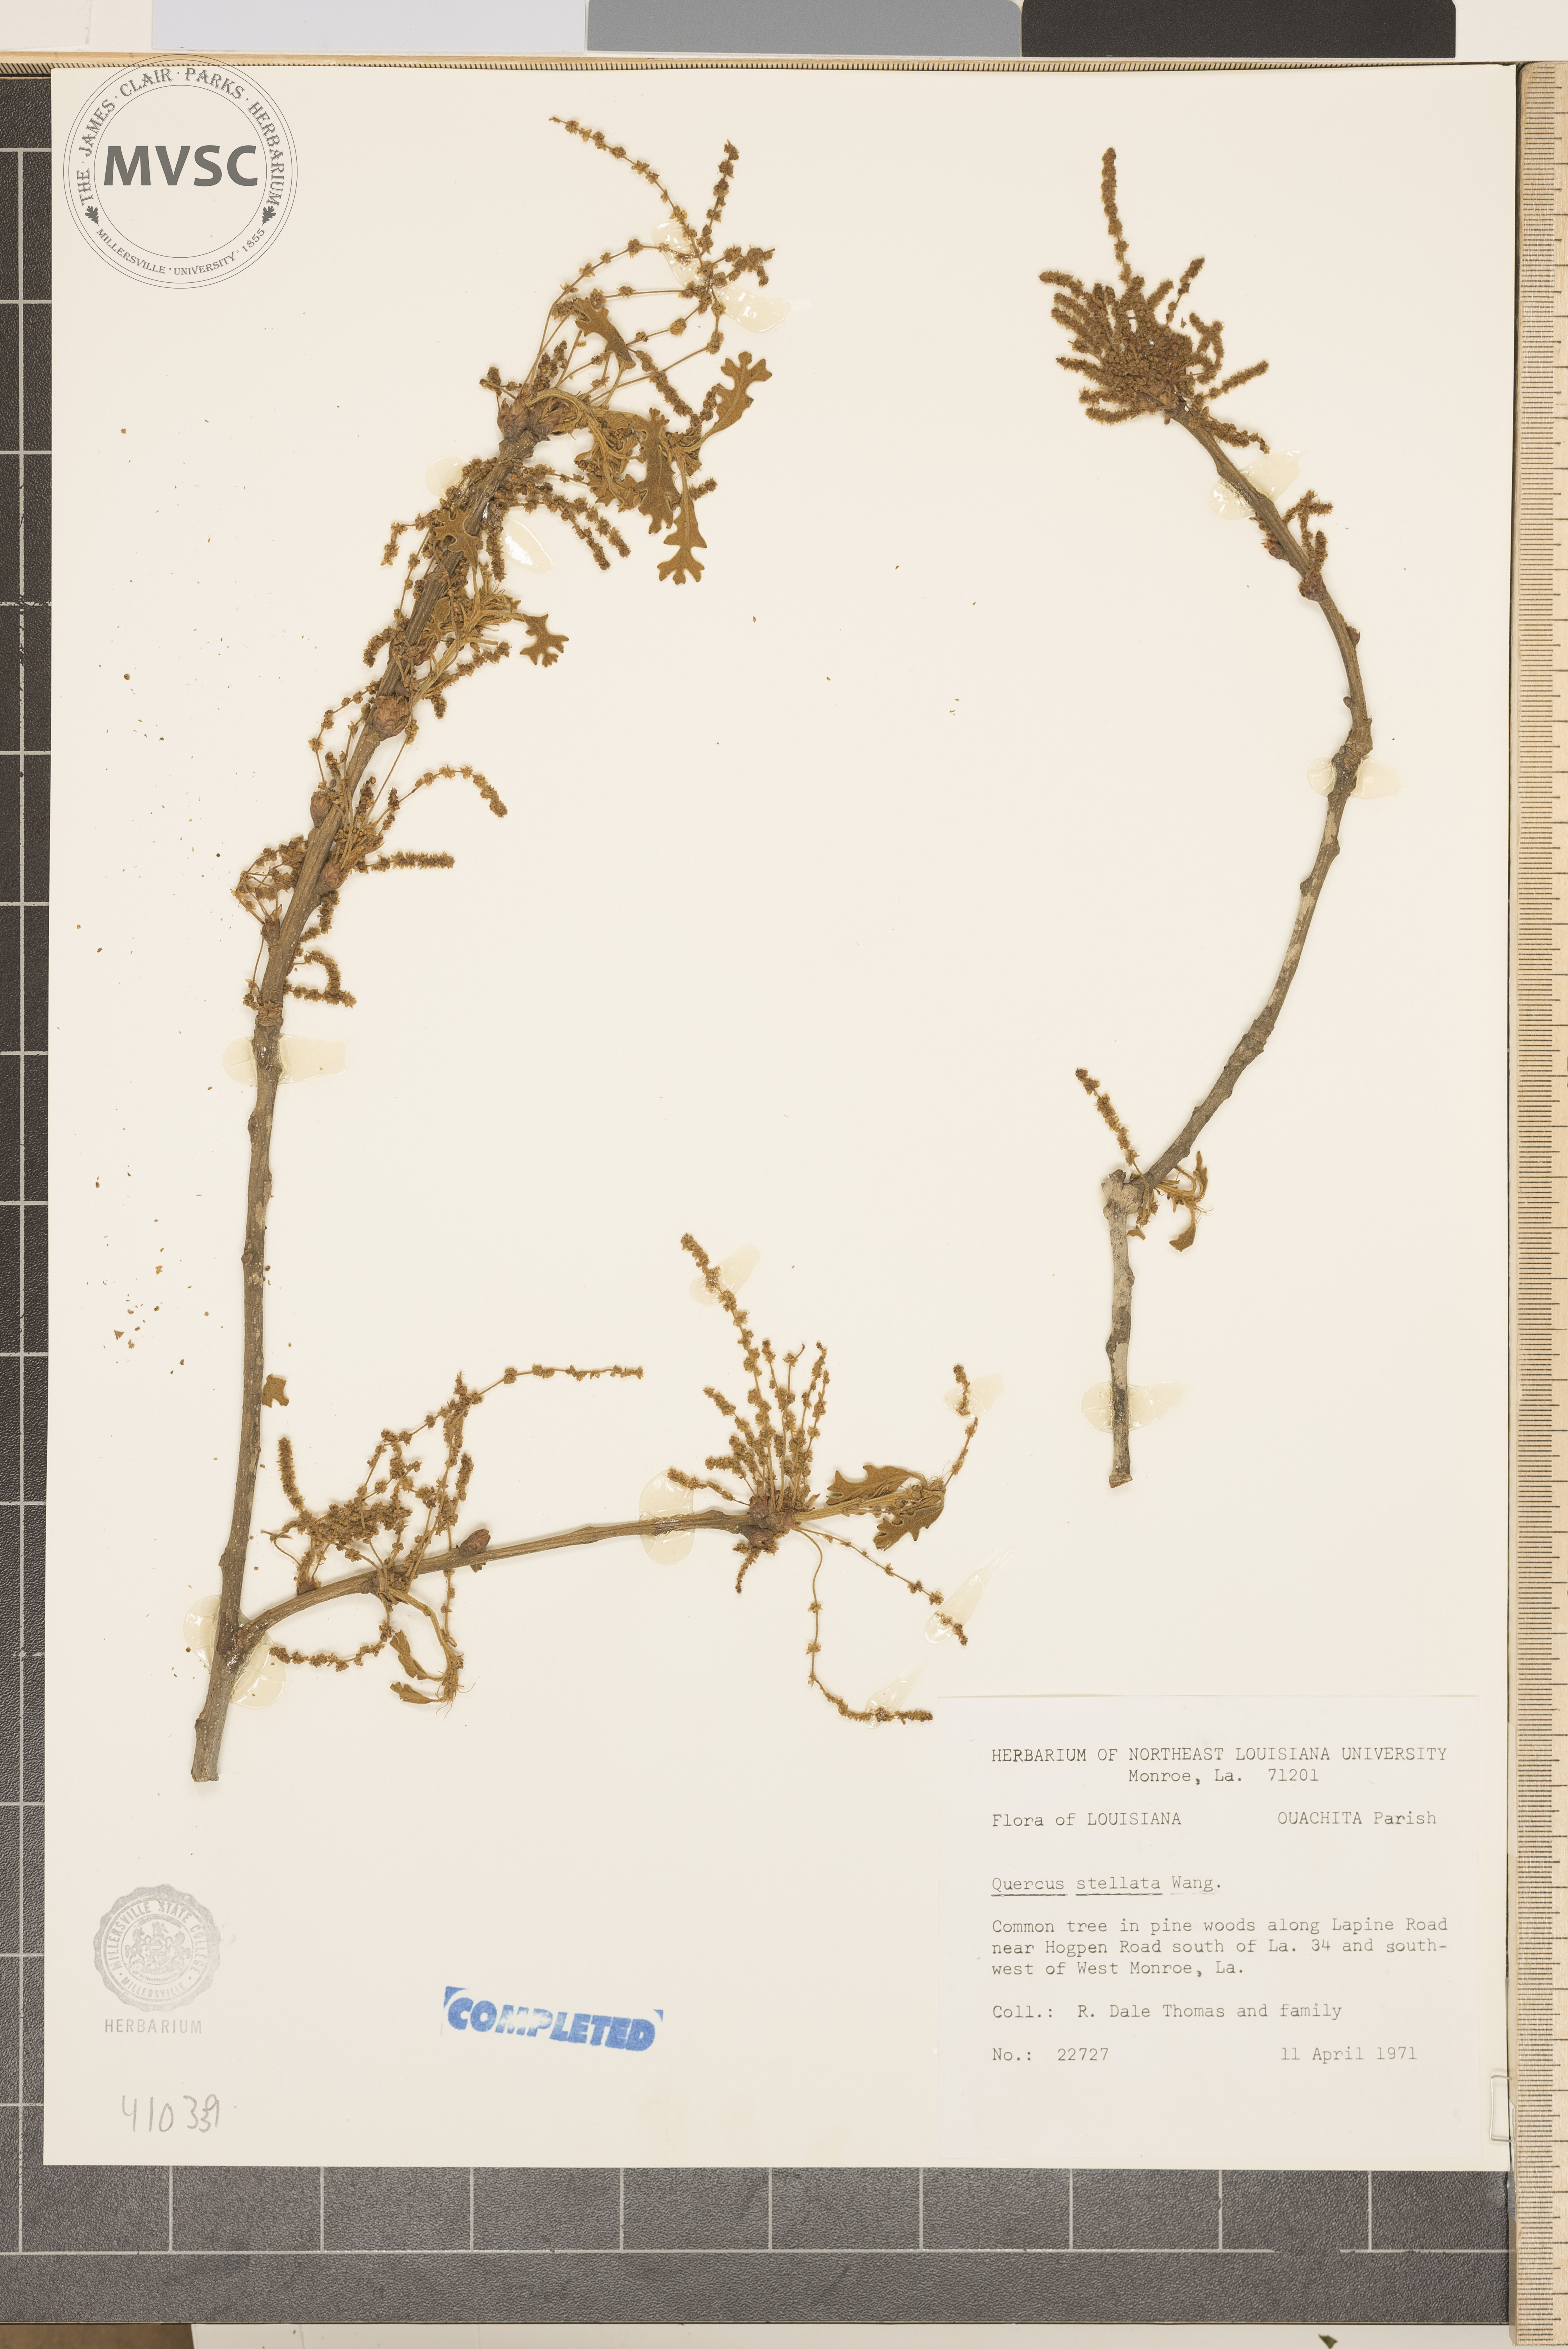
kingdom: Plantae
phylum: Tracheophyta
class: Magnoliopsida
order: Fagales
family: Fagaceae
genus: Quercus
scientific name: Quercus stellata
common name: Post oak
